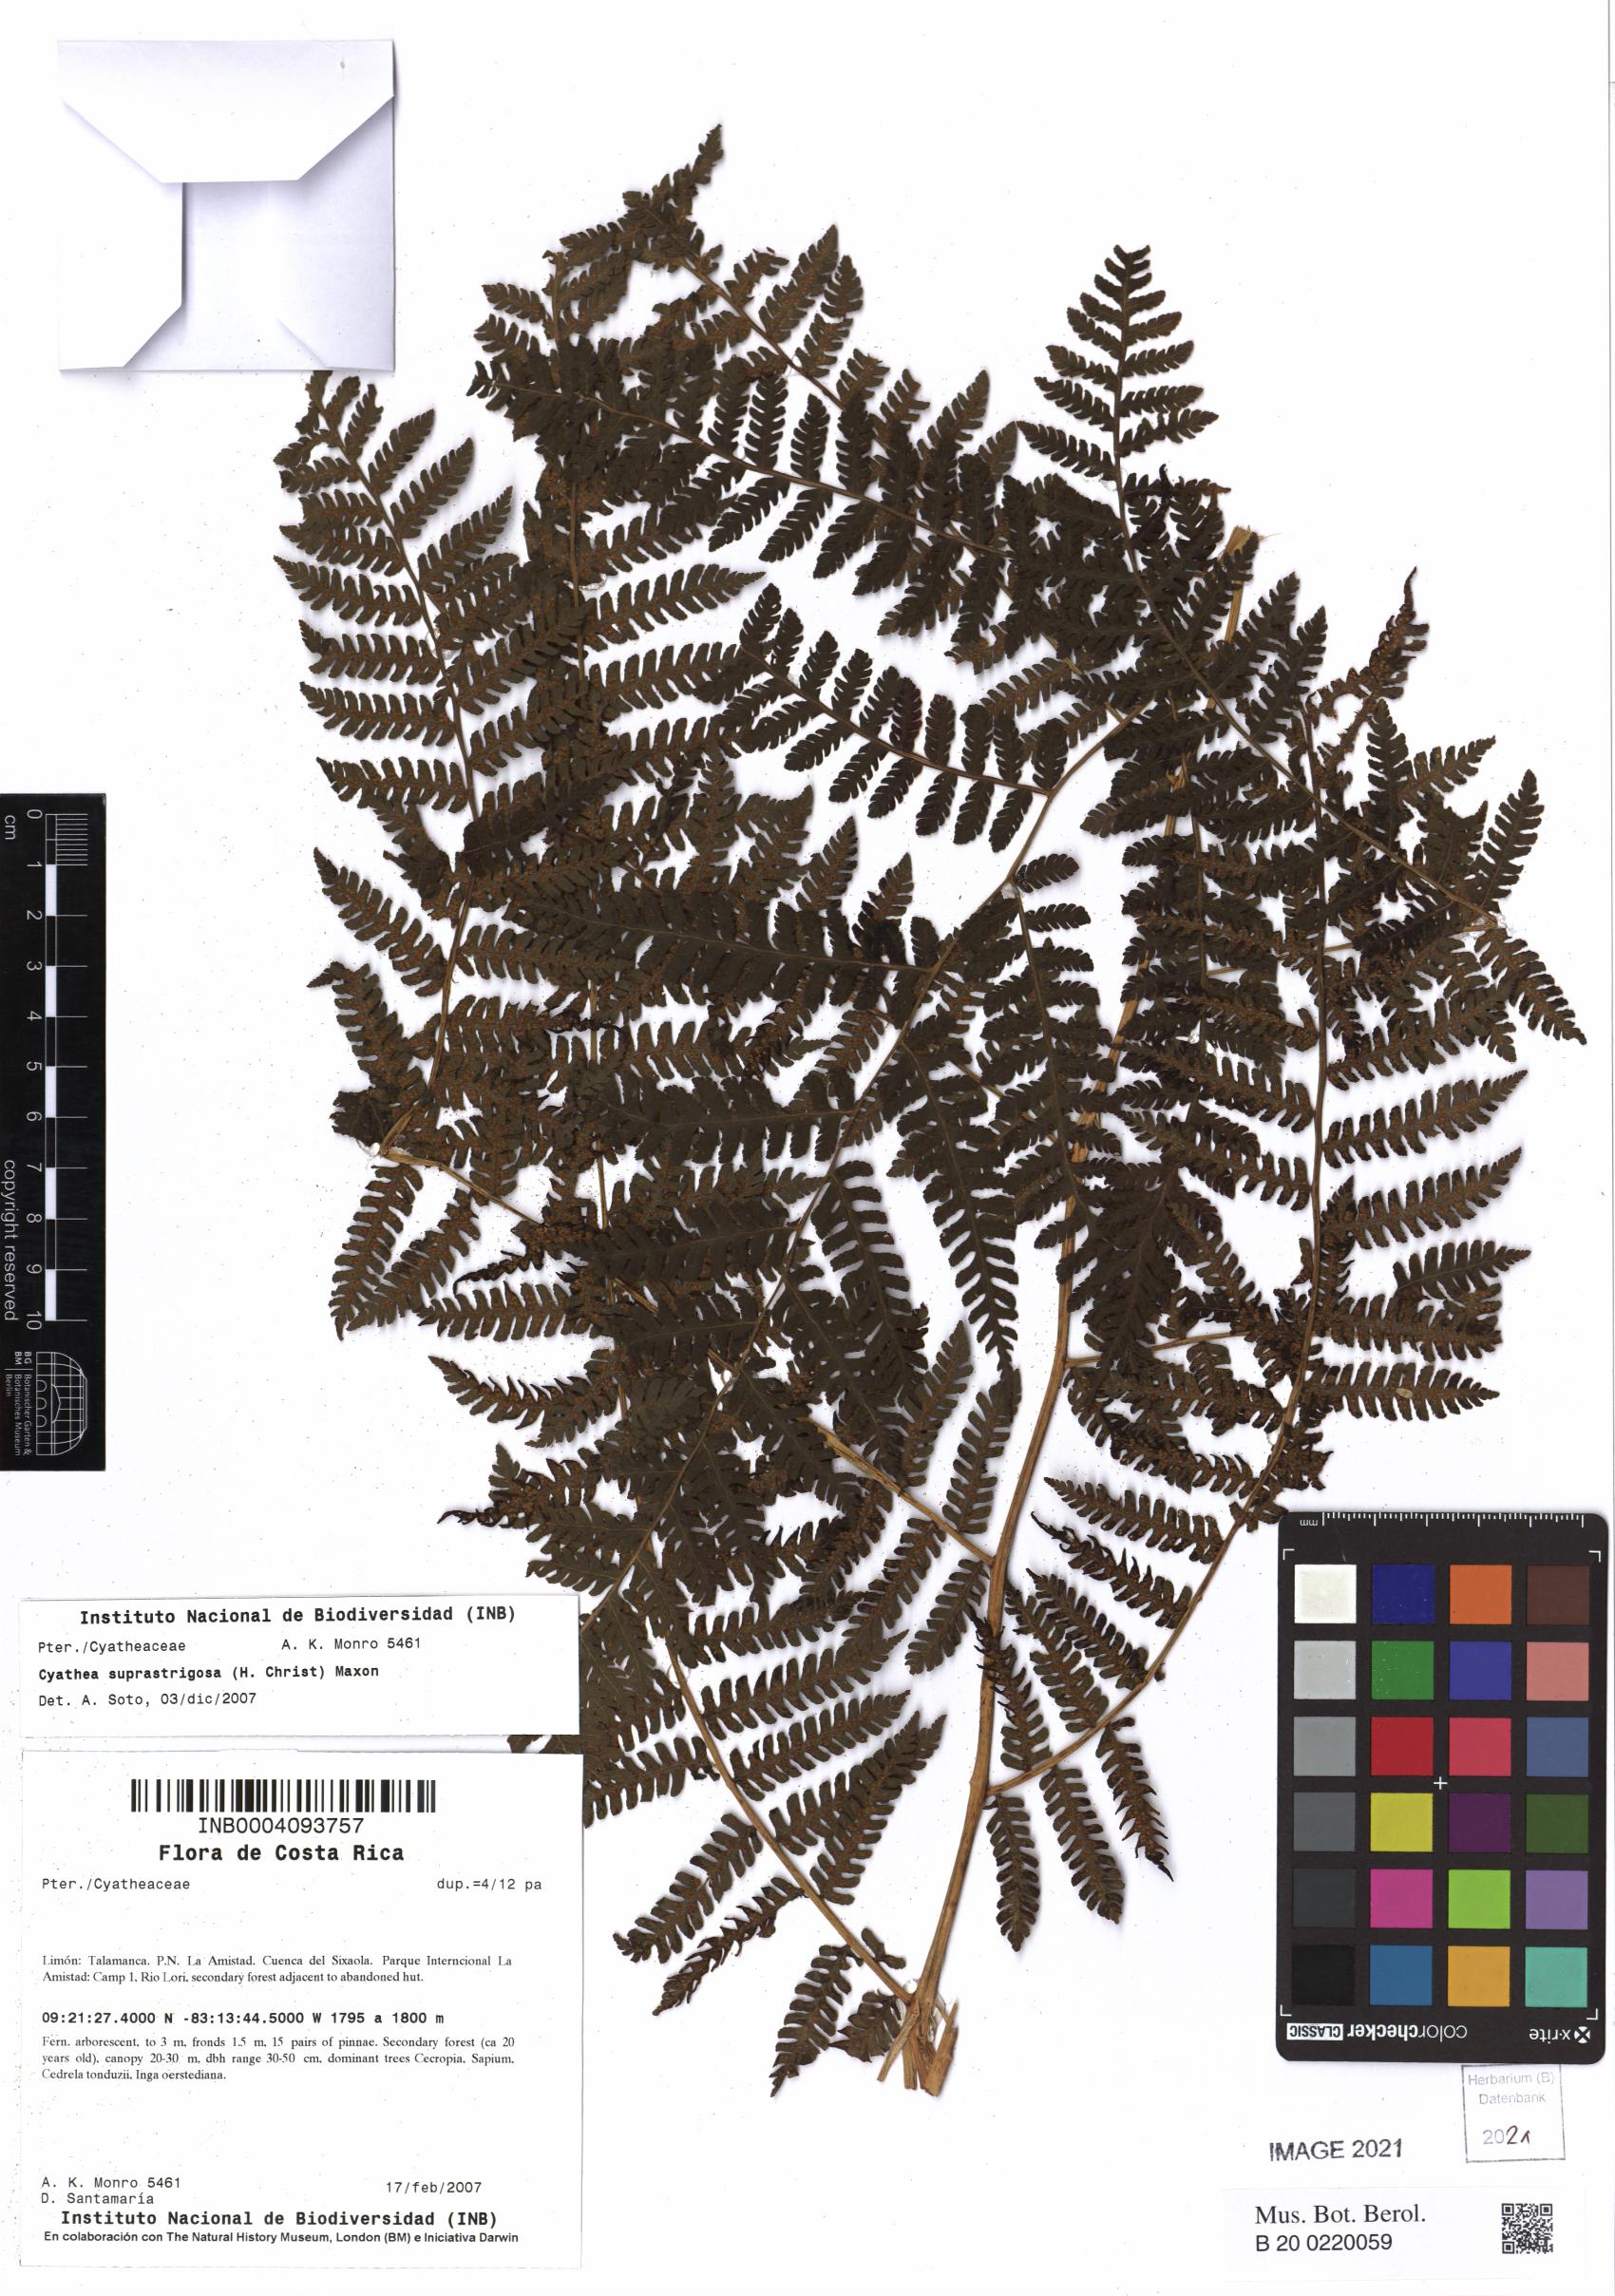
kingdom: Plantae
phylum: Tracheophyta
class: Polypodiopsida
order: Cyatheales
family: Cyatheaceae
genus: Cyathea
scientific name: Cyathea suprastrigosa
